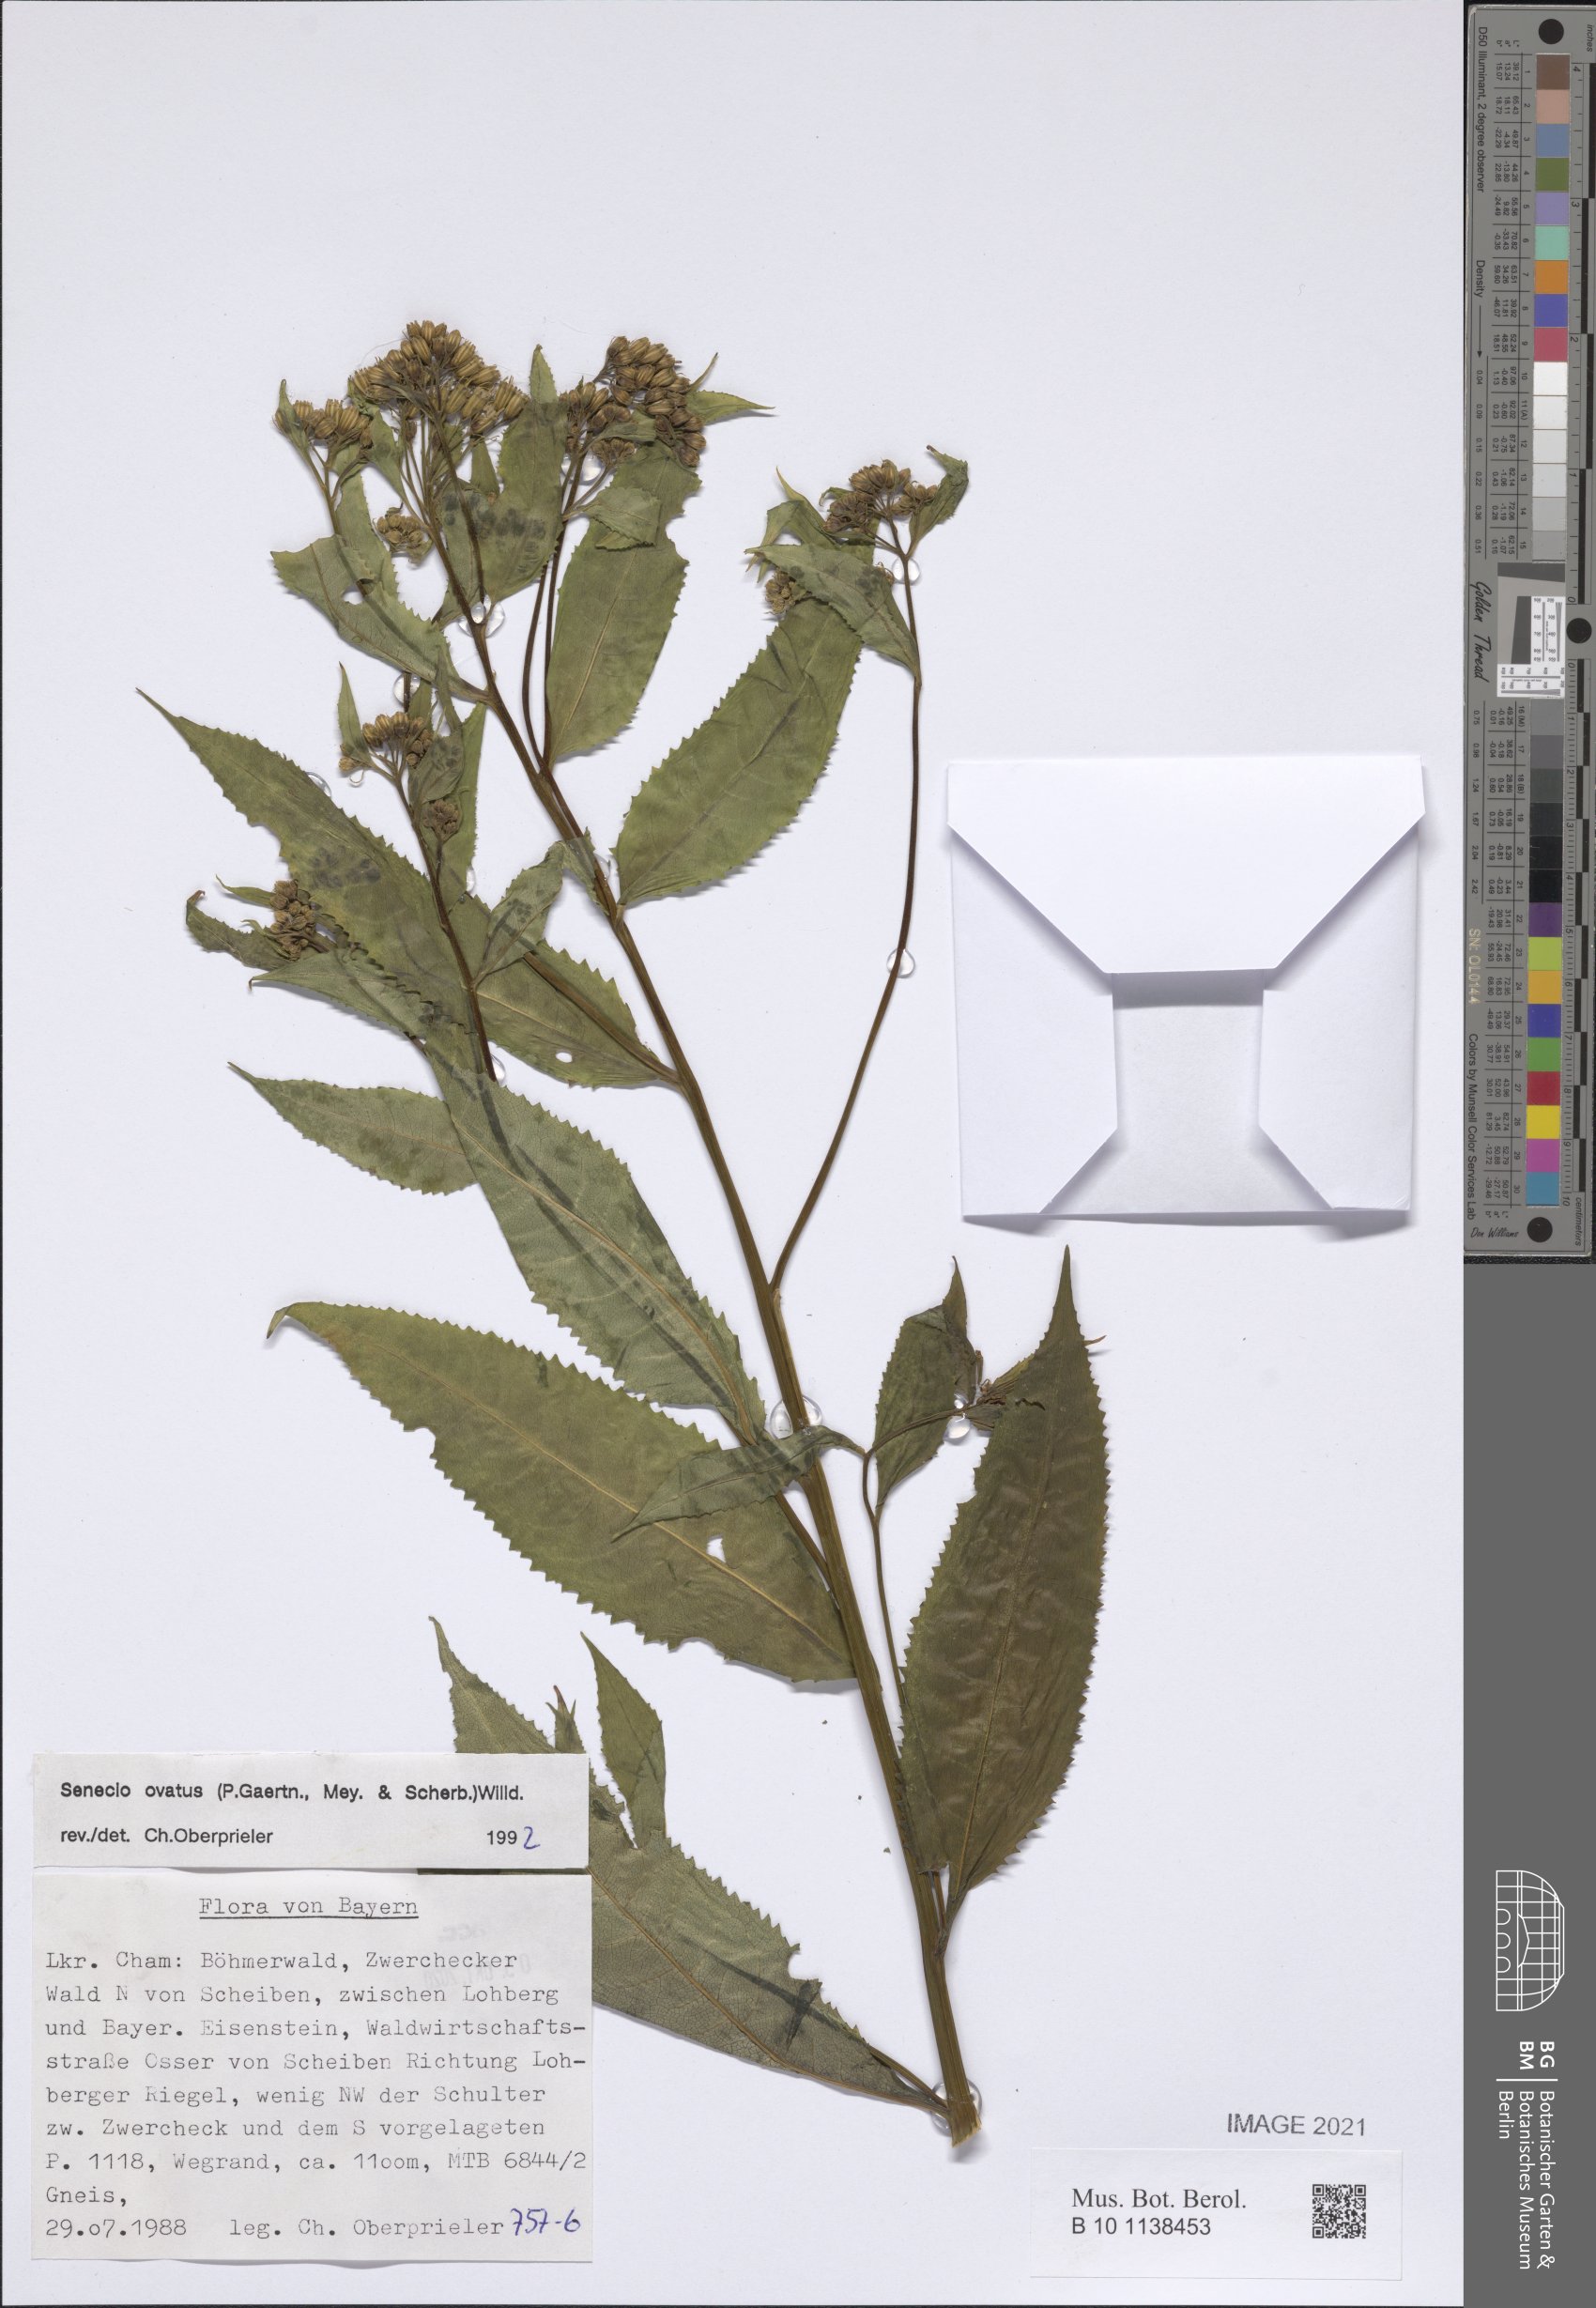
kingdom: Plantae
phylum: Tracheophyta
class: Magnoliopsida
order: Asterales
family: Asteraceae
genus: Senecio
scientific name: Senecio ovatus
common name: Wood ragwort
